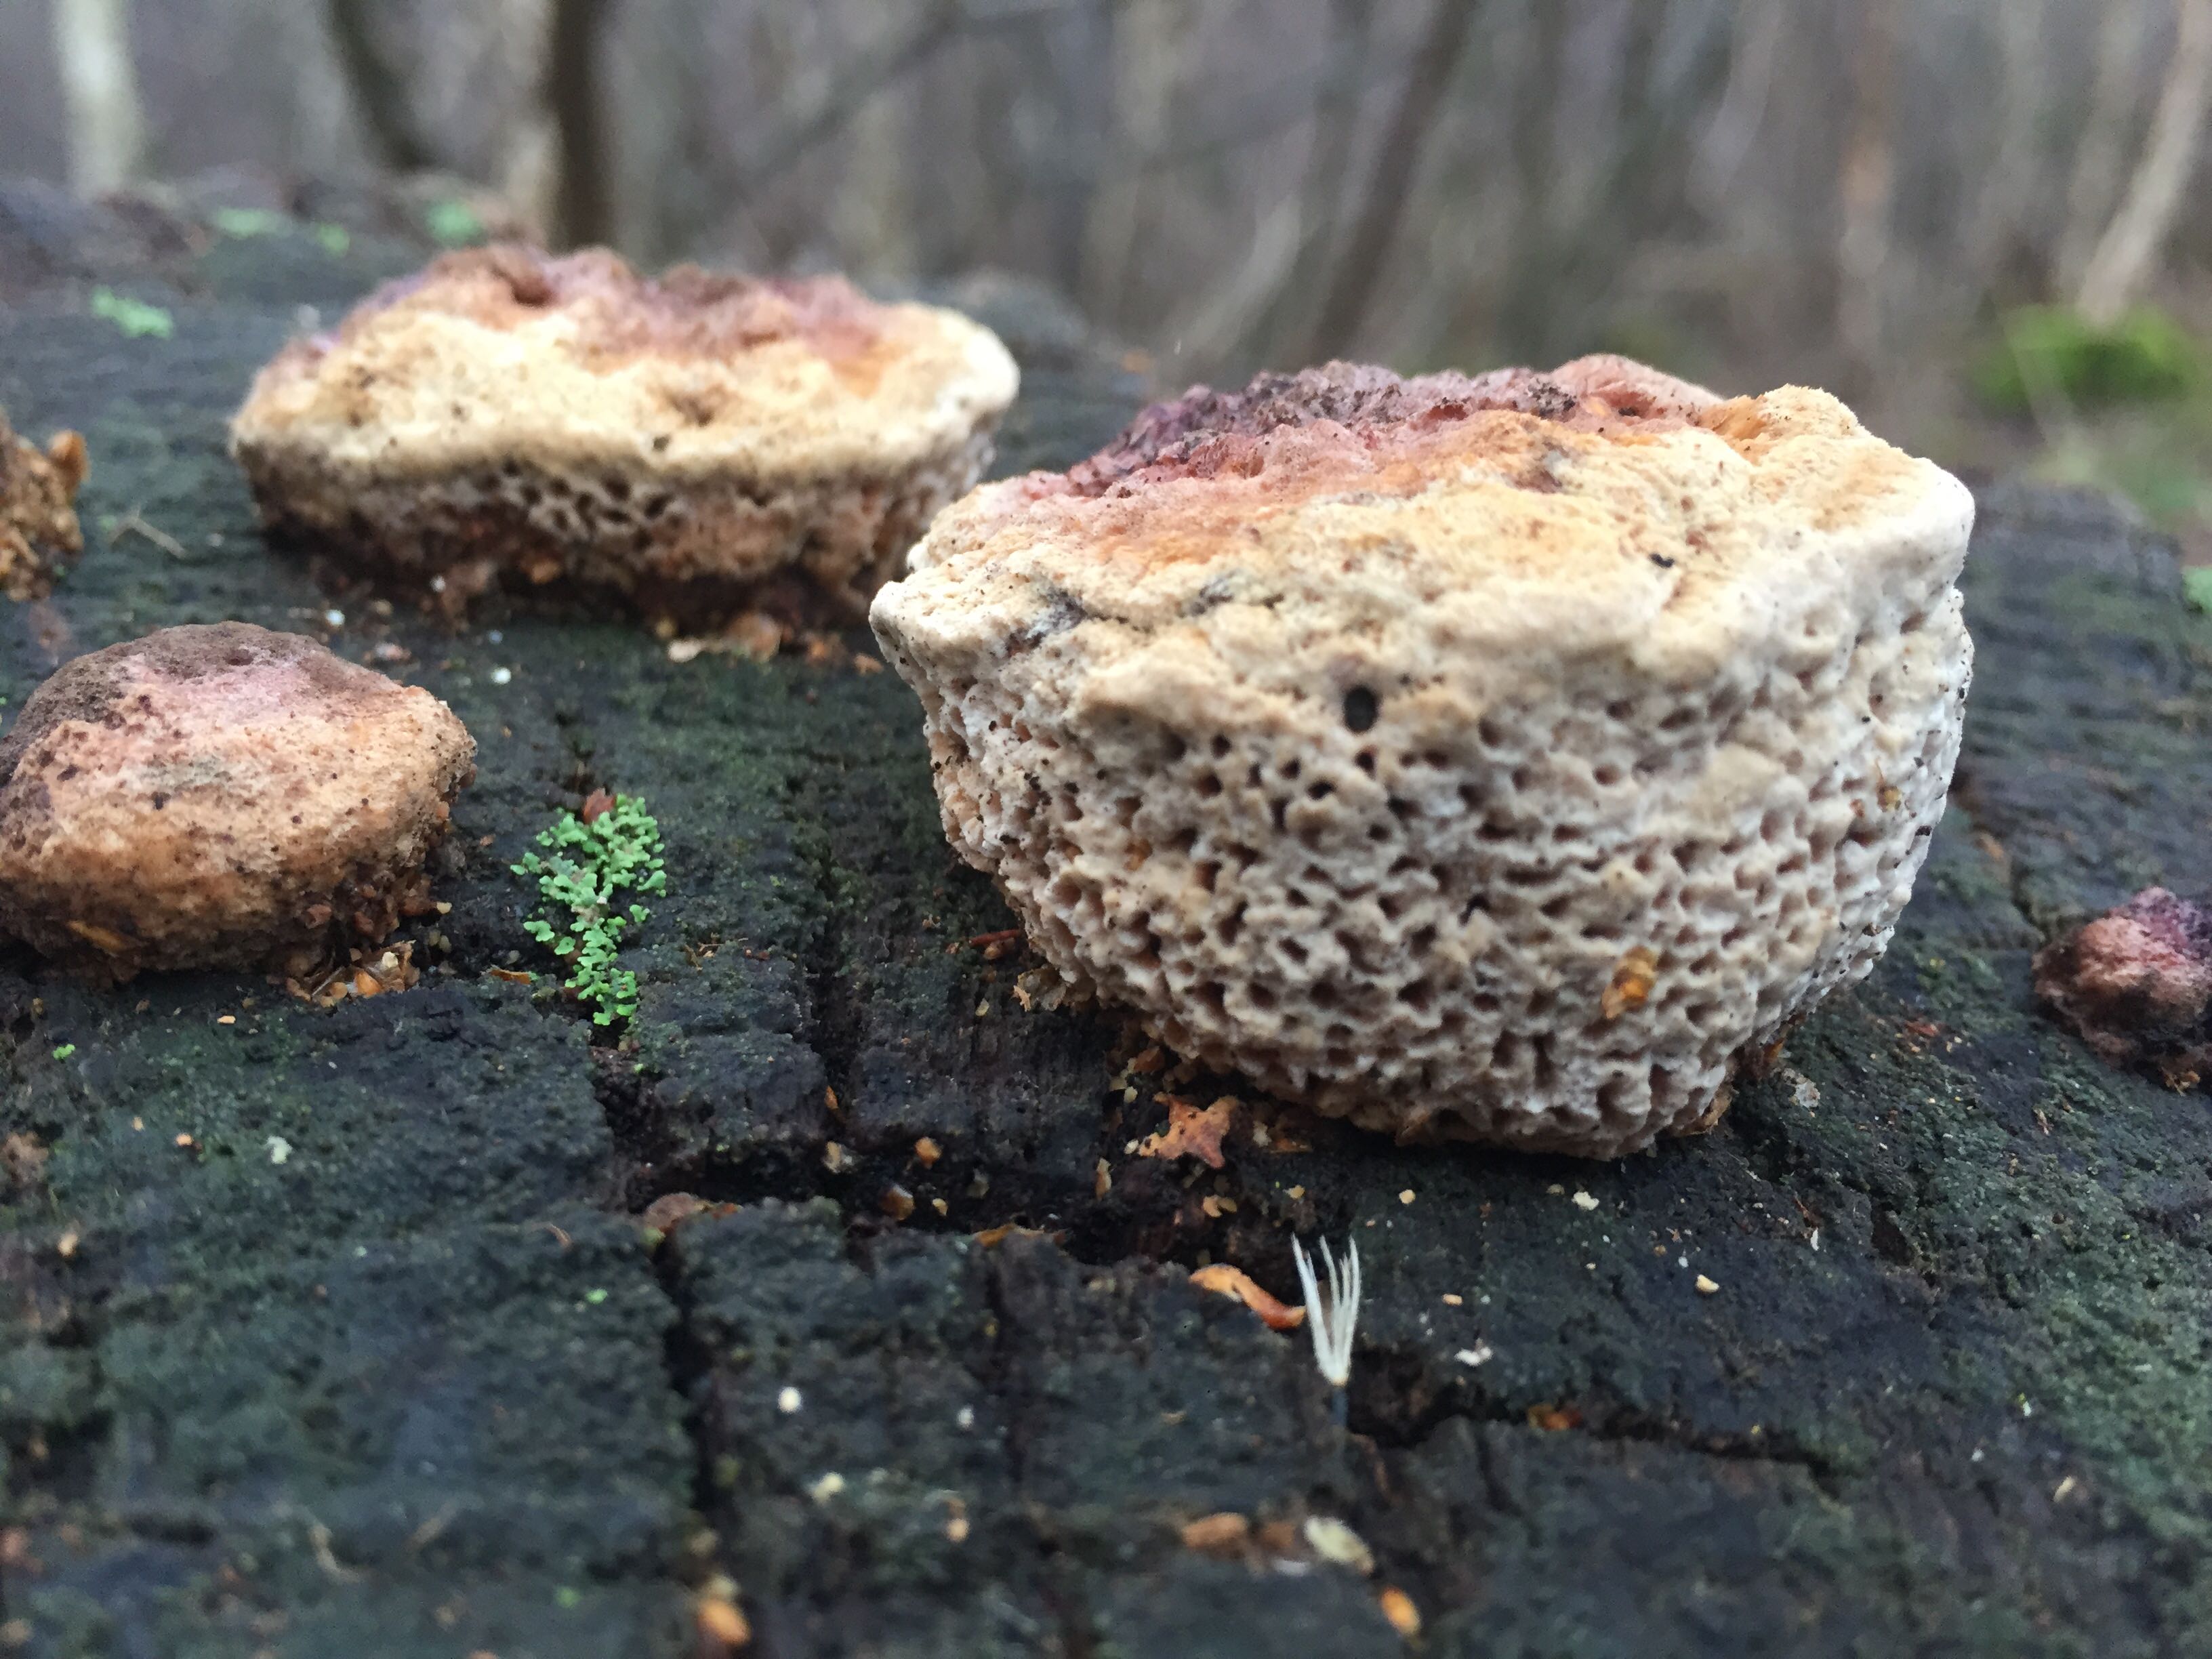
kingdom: Fungi
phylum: Basidiomycota
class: Agaricomycetes
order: Polyporales
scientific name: Polyporales
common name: poresvampordenen
